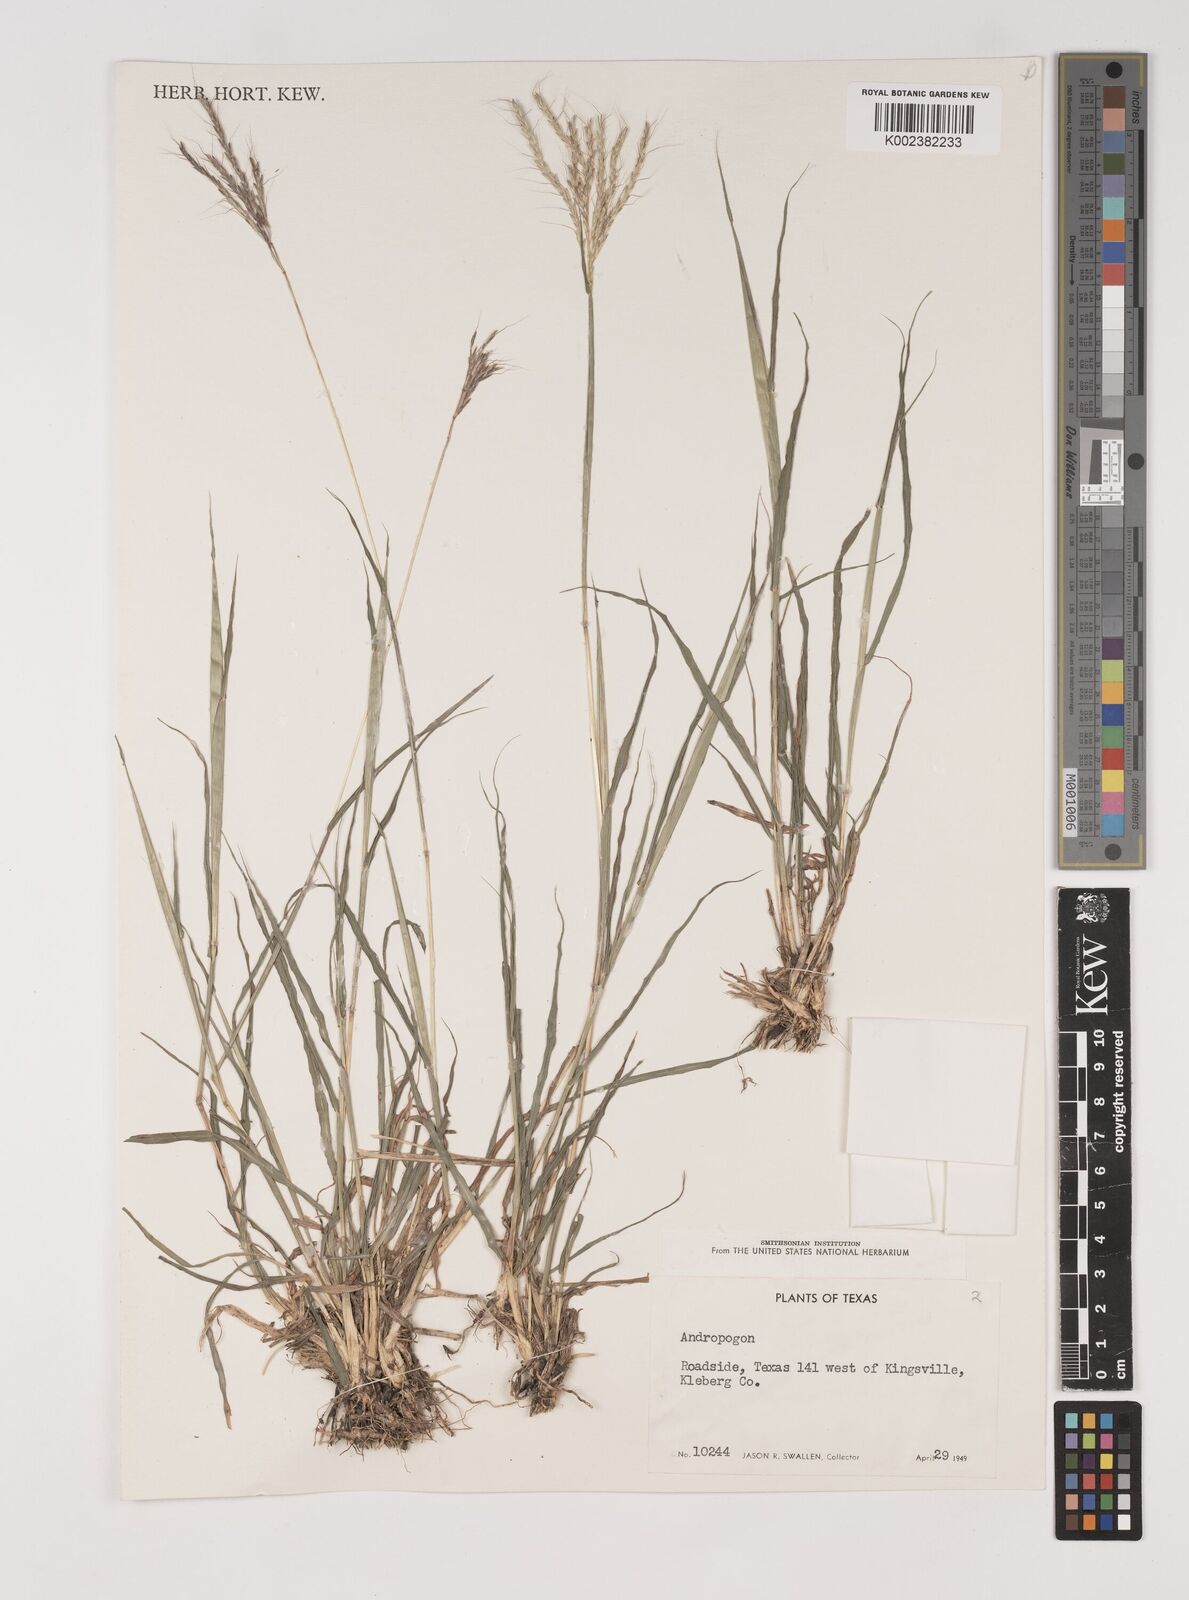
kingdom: Plantae
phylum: Tracheophyta
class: Liliopsida
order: Poales
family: Poaceae
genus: Bothriochloa
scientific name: Bothriochloa
